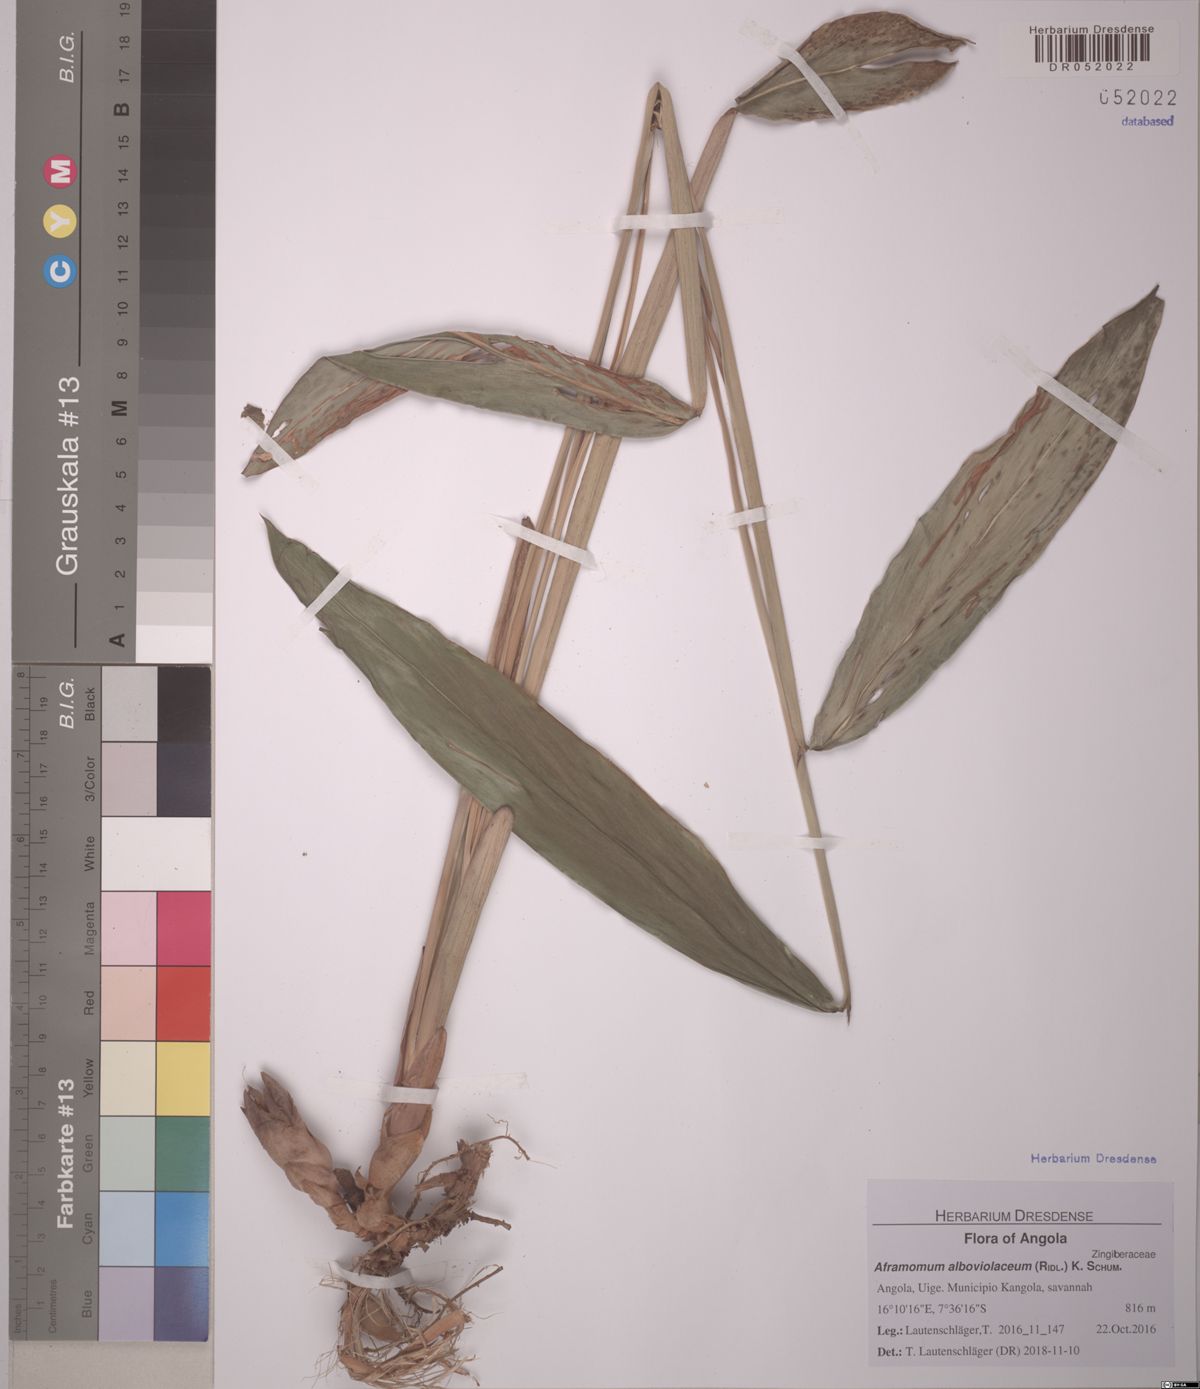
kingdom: Plantae
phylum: Tracheophyta
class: Liliopsida
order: Zingiberales
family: Zingiberaceae
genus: Aframomum
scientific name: Aframomum alboviolaceum
